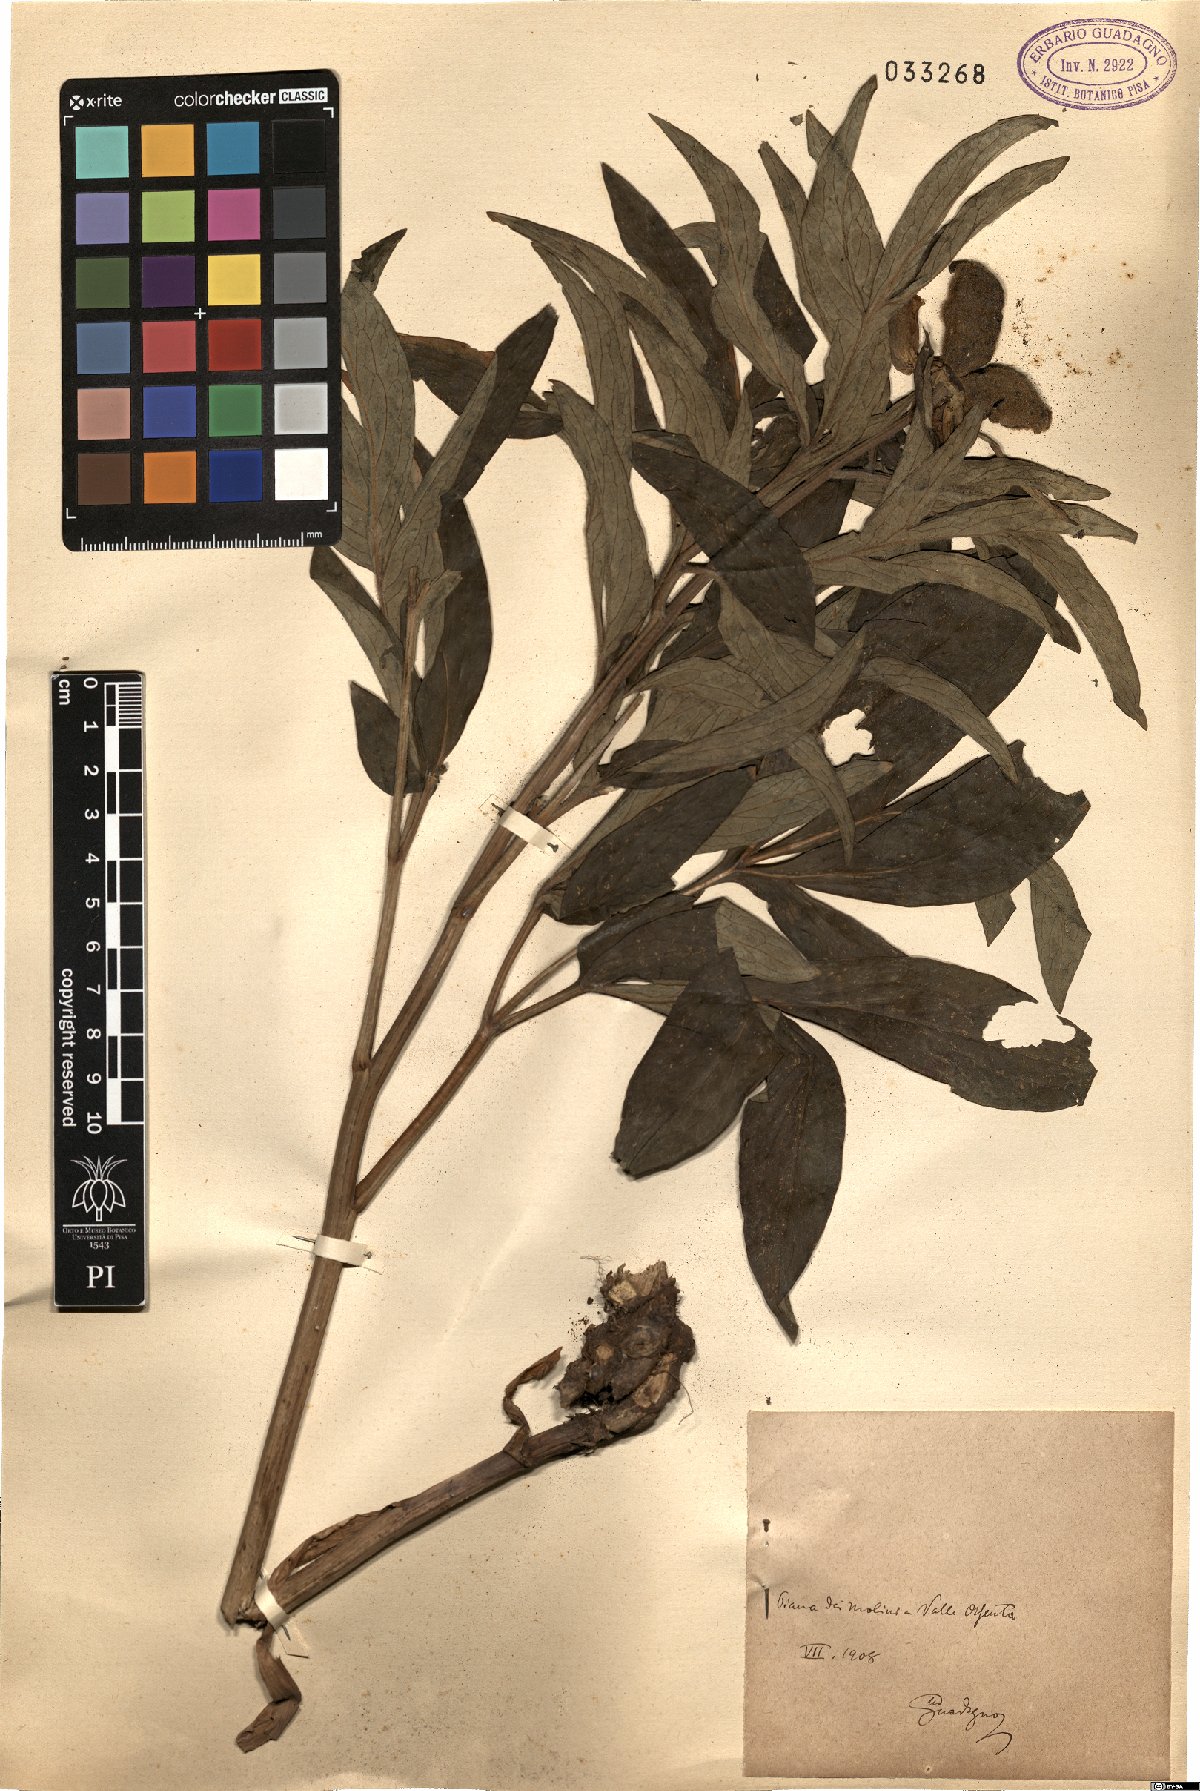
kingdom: Plantae
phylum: Tracheophyta
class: Magnoliopsida
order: Saxifragales
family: Paeoniaceae
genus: Paeonia
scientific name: Paeonia
